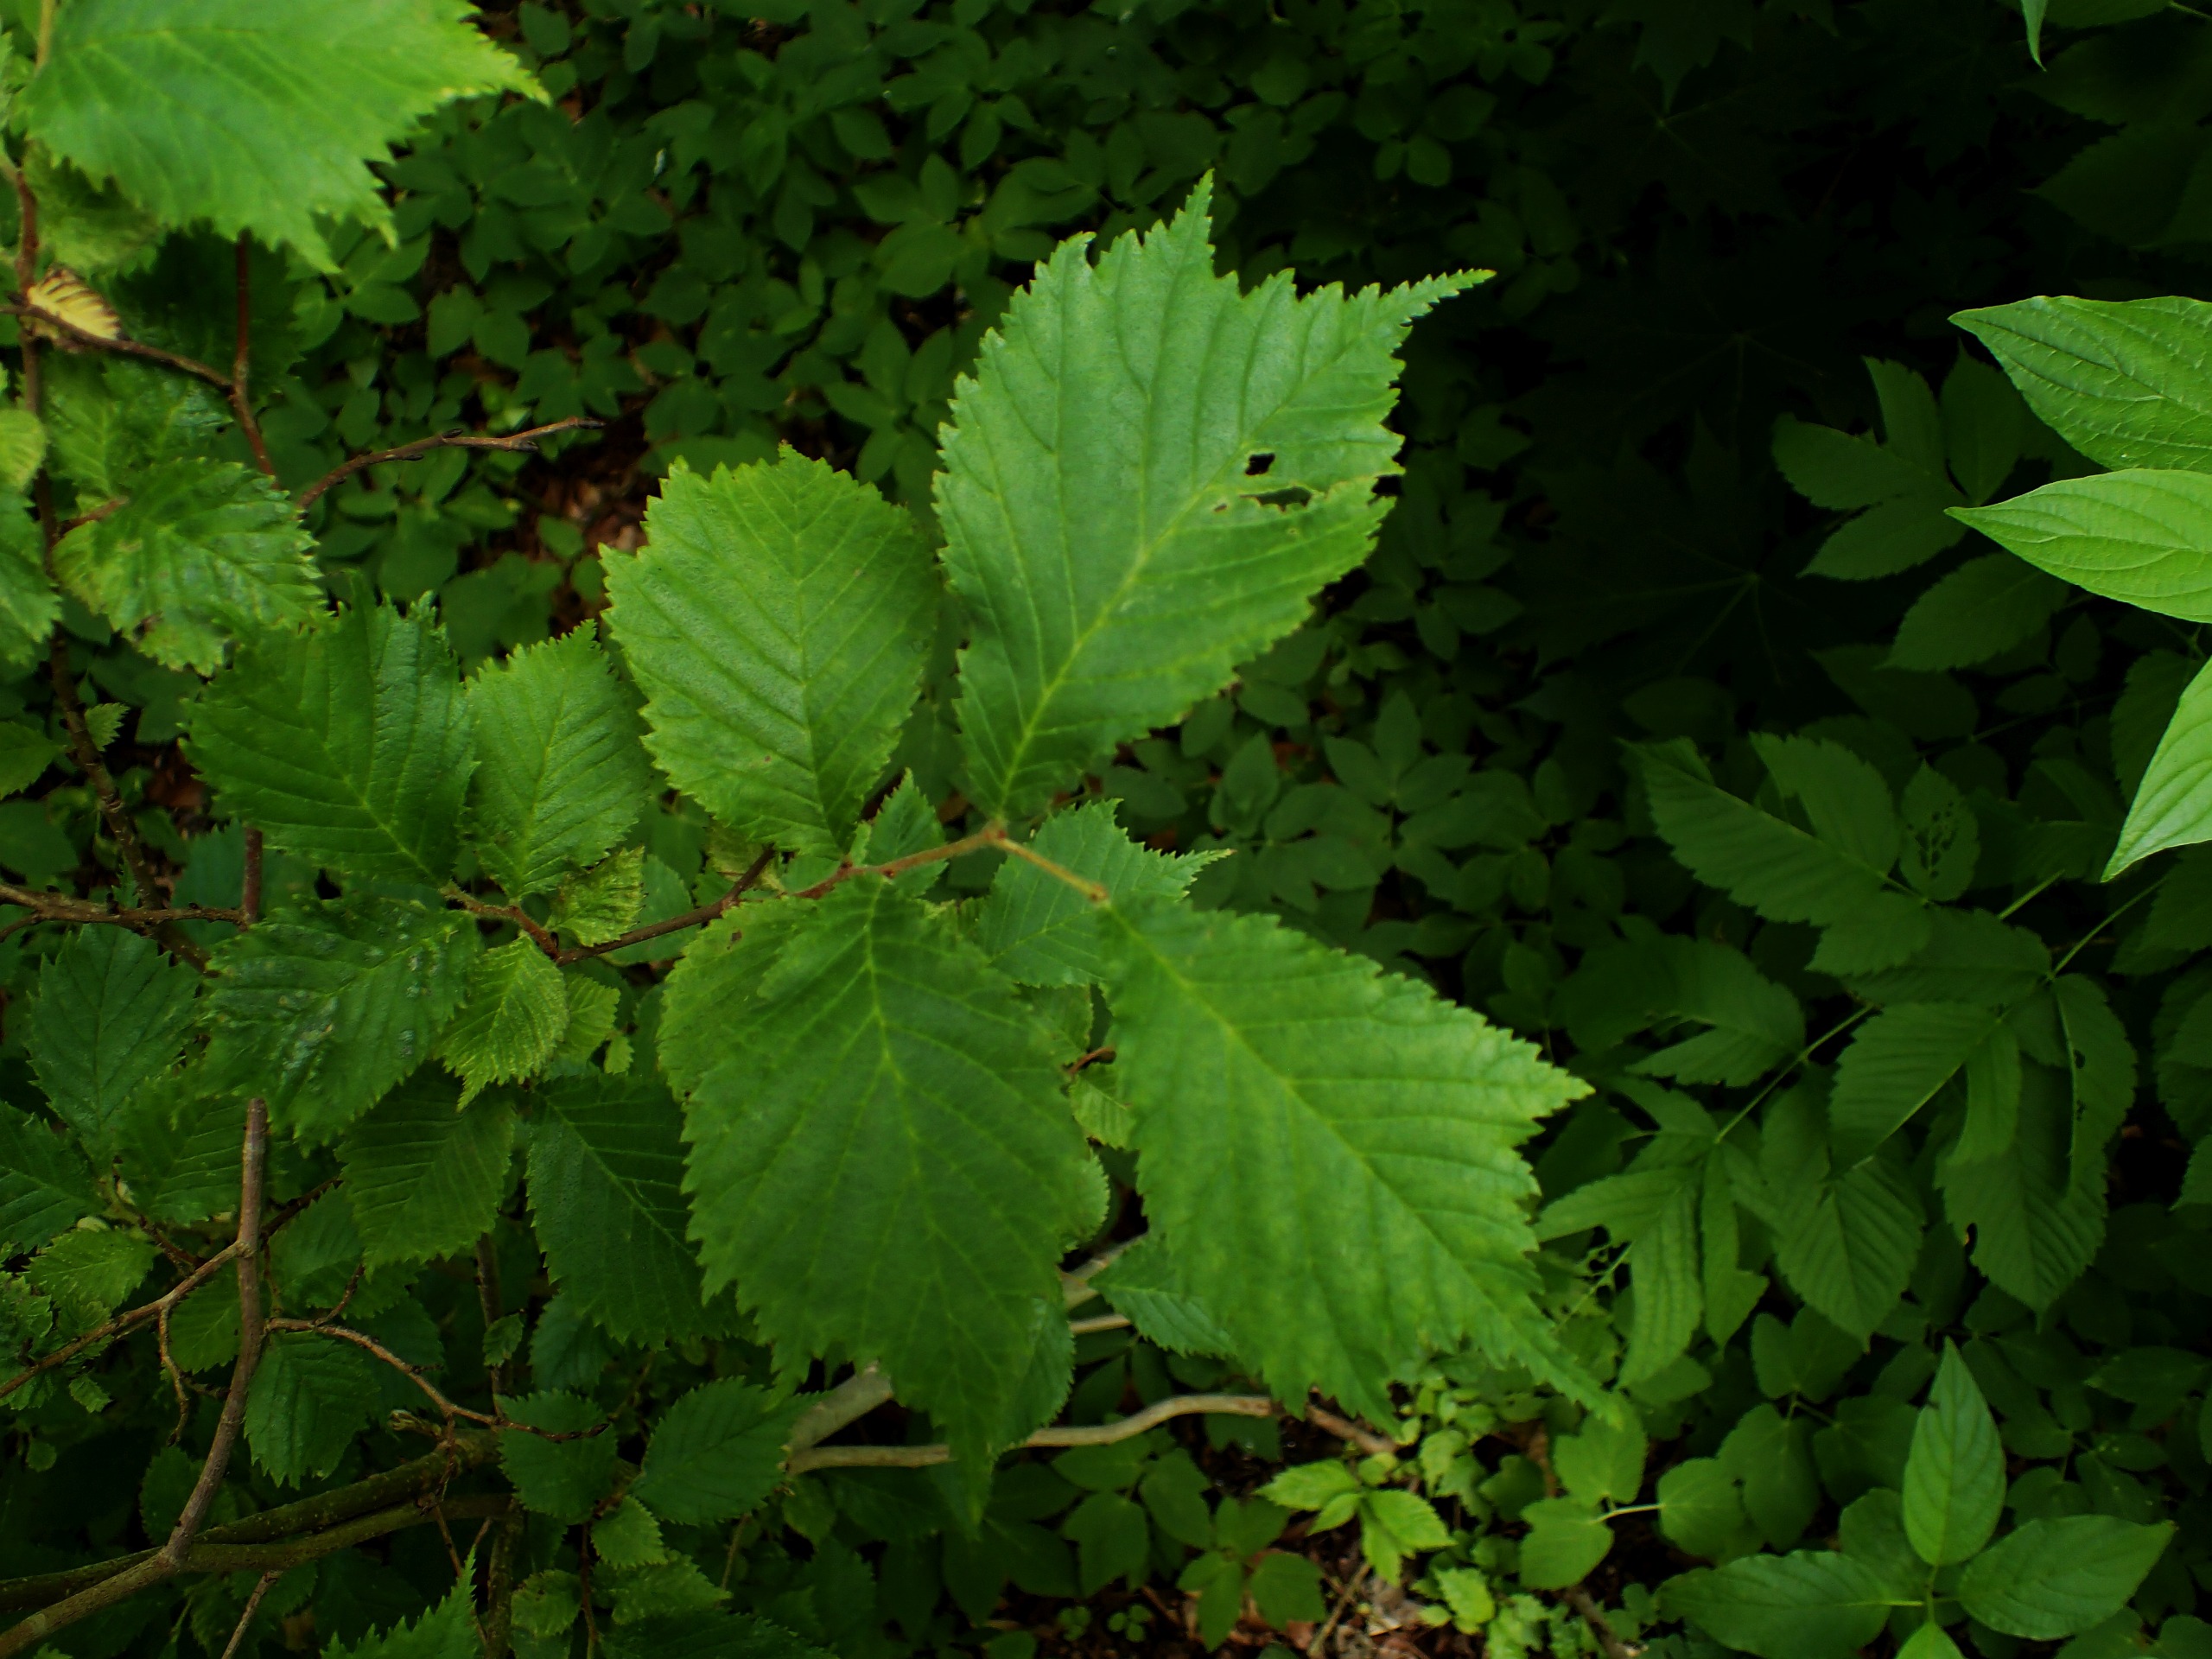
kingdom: Plantae
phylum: Tracheophyta
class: Magnoliopsida
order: Rosales
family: Ulmaceae
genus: Ulmus
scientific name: Ulmus glabra
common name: Skov-elm/storbladet elm
